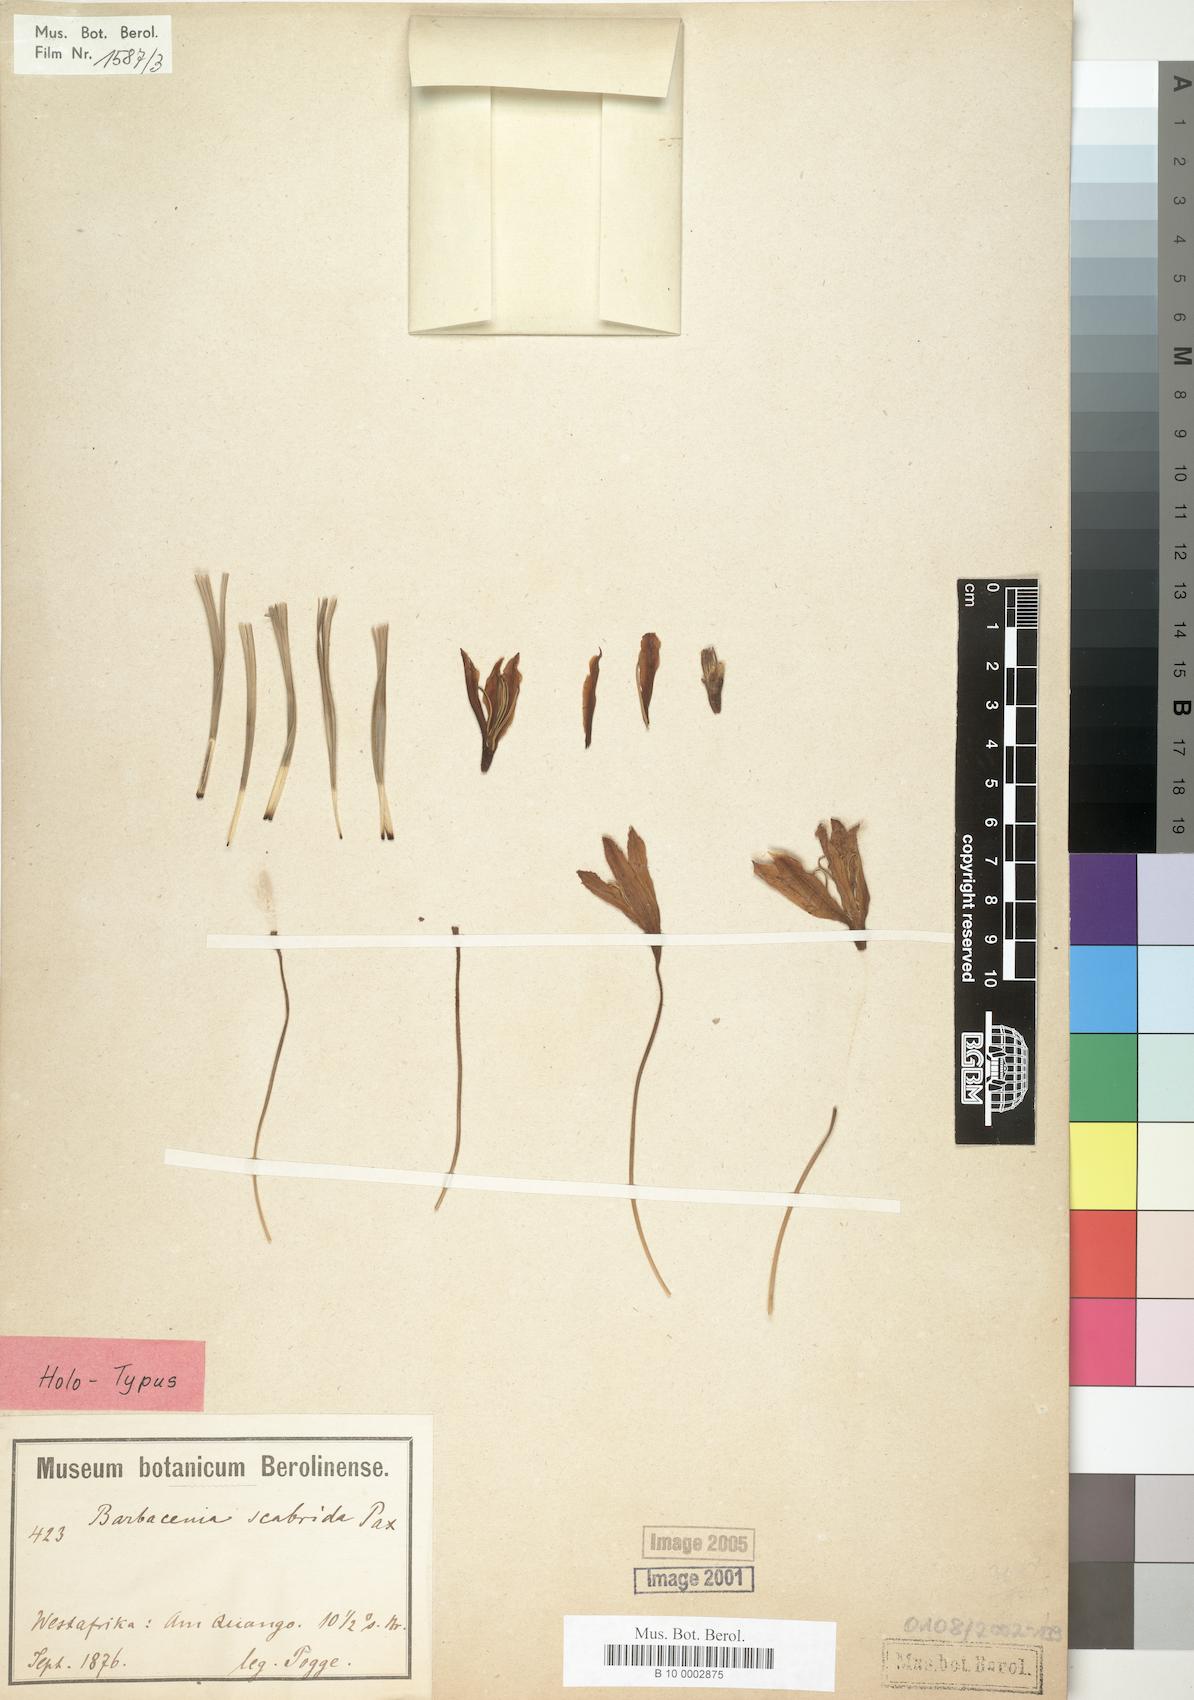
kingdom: Plantae
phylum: Tracheophyta
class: Liliopsida
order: Pandanales
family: Velloziaceae
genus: Xerophyta
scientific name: Xerophyta scabrida
